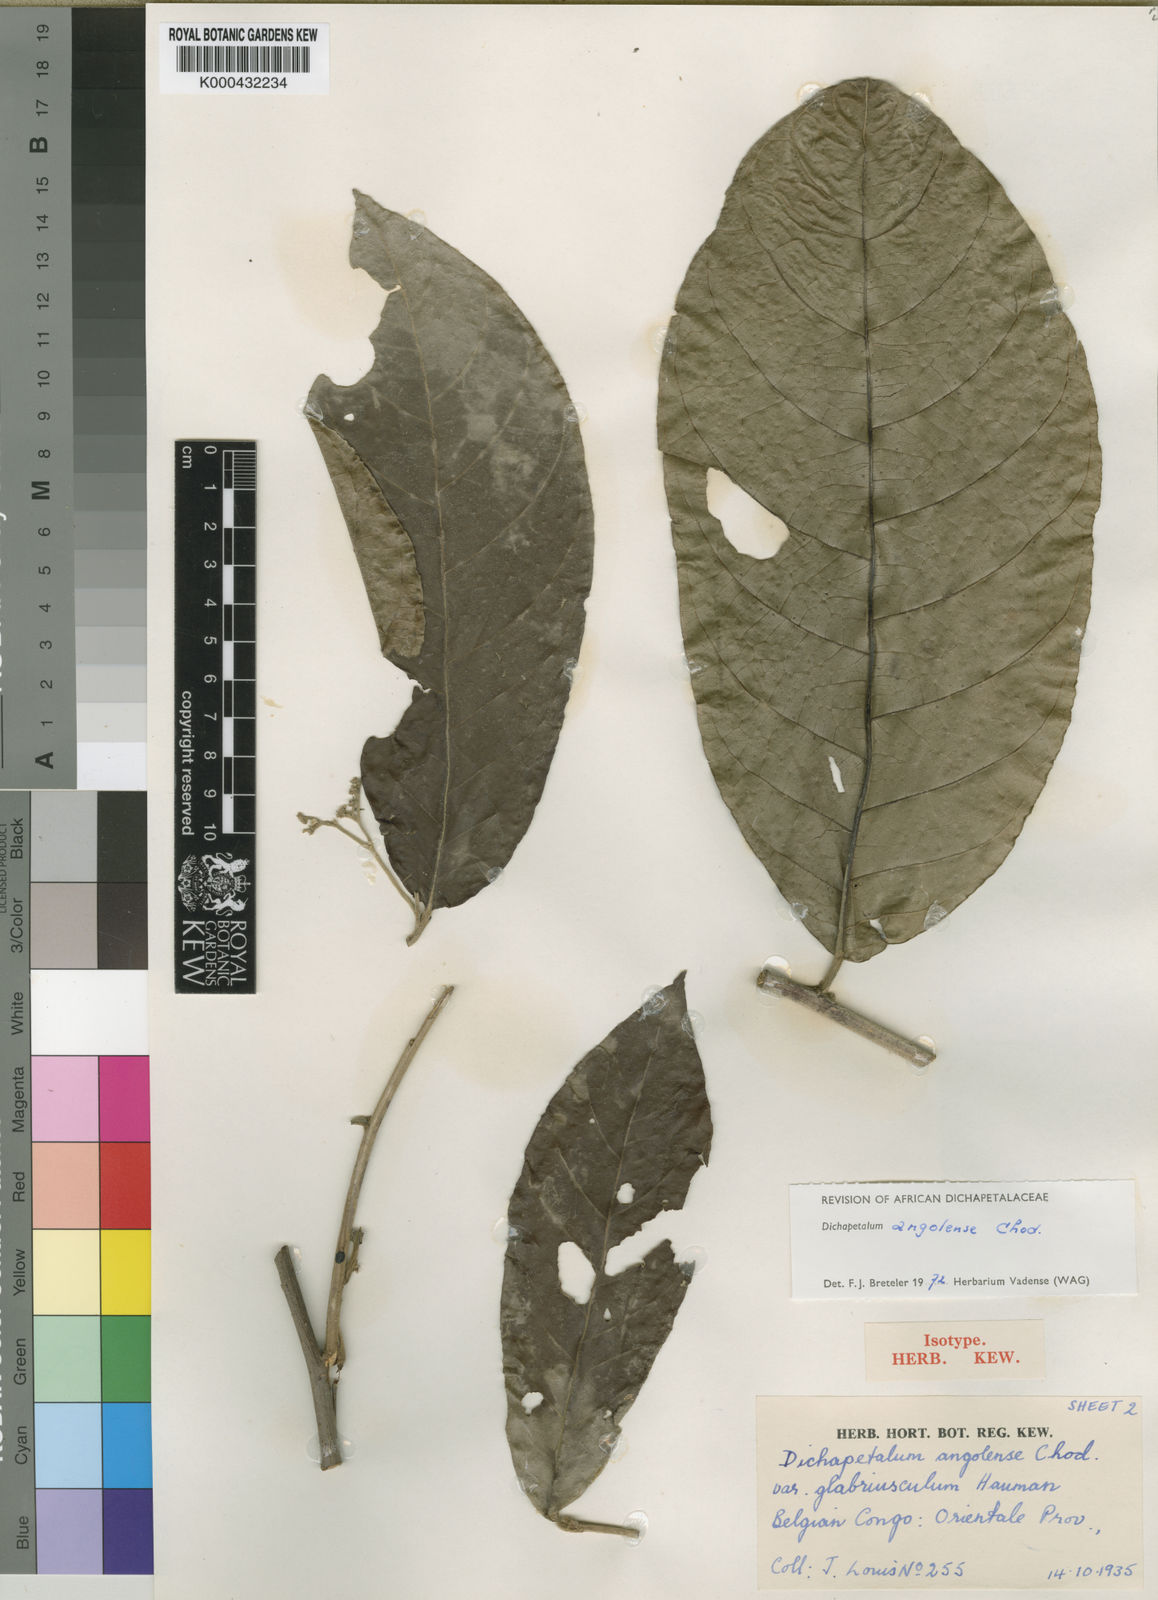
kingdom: Plantae
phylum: Tracheophyta
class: Magnoliopsida
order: Malpighiales
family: Dichapetalaceae
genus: Dichapetalum
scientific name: Dichapetalum angolense
